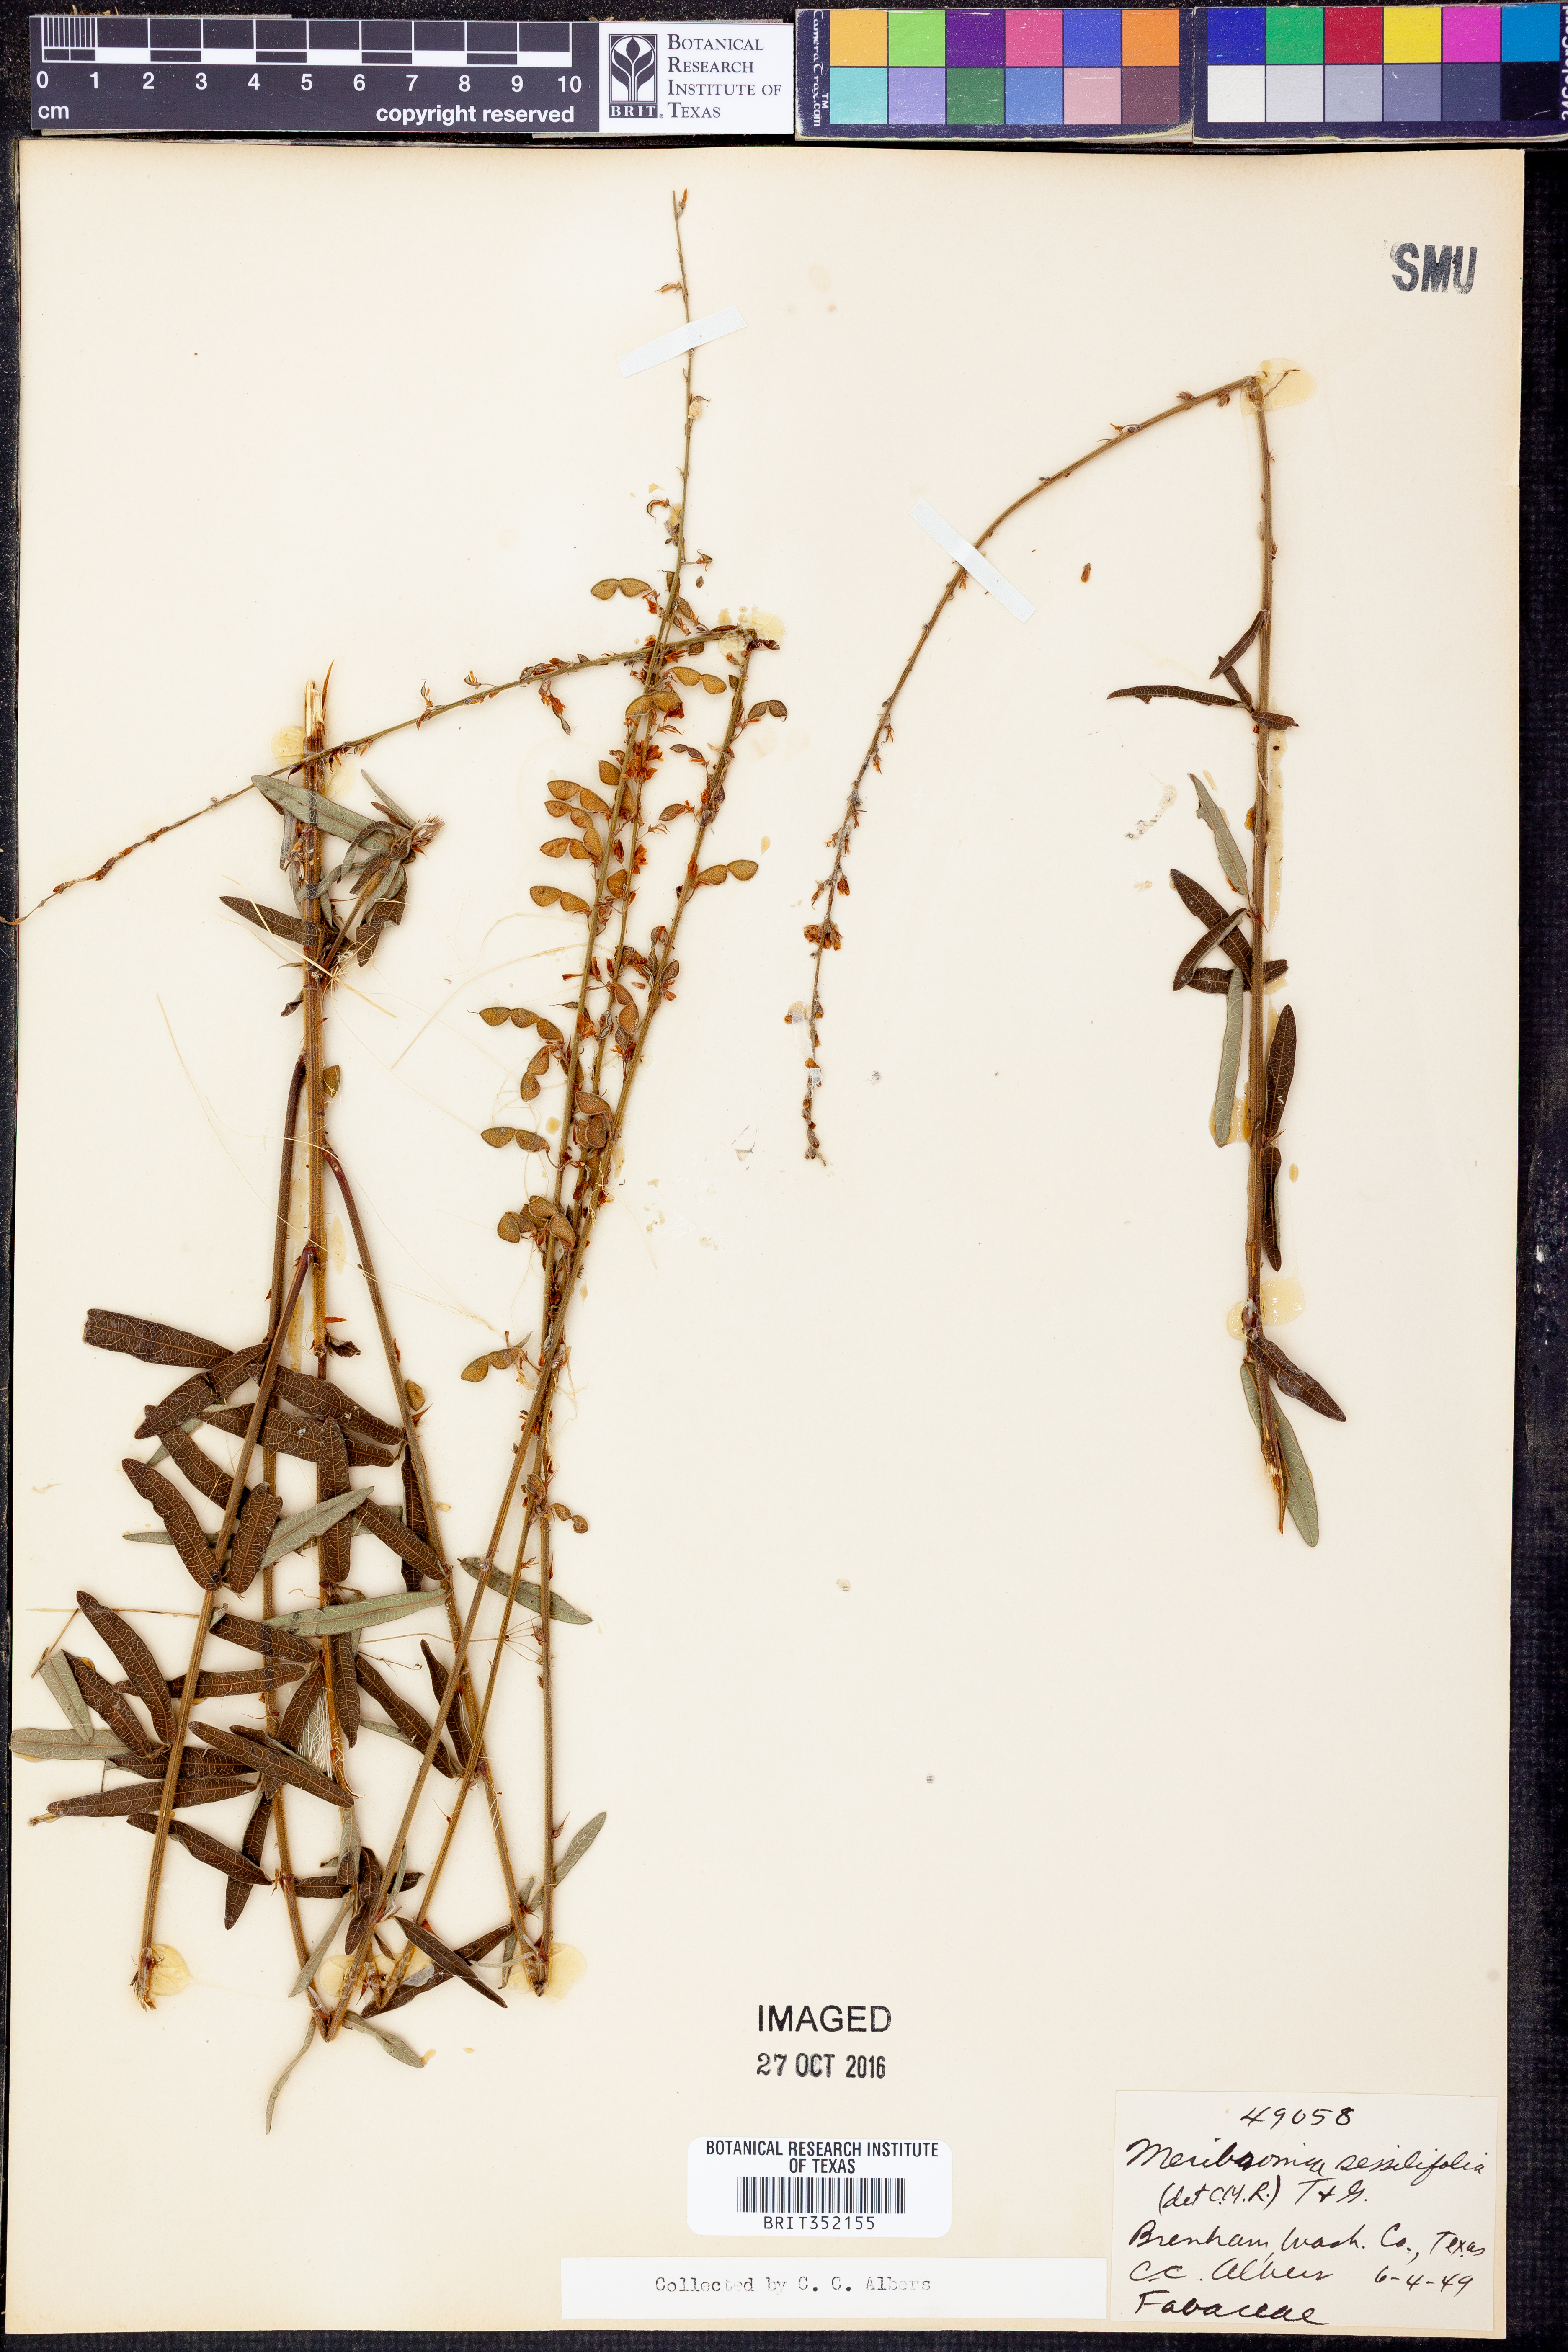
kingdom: Plantae
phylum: Tracheophyta
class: Magnoliopsida
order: Fabales
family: Fabaceae
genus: Desmodium
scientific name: Desmodium sessilifolium
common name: Sessile tick-clover
